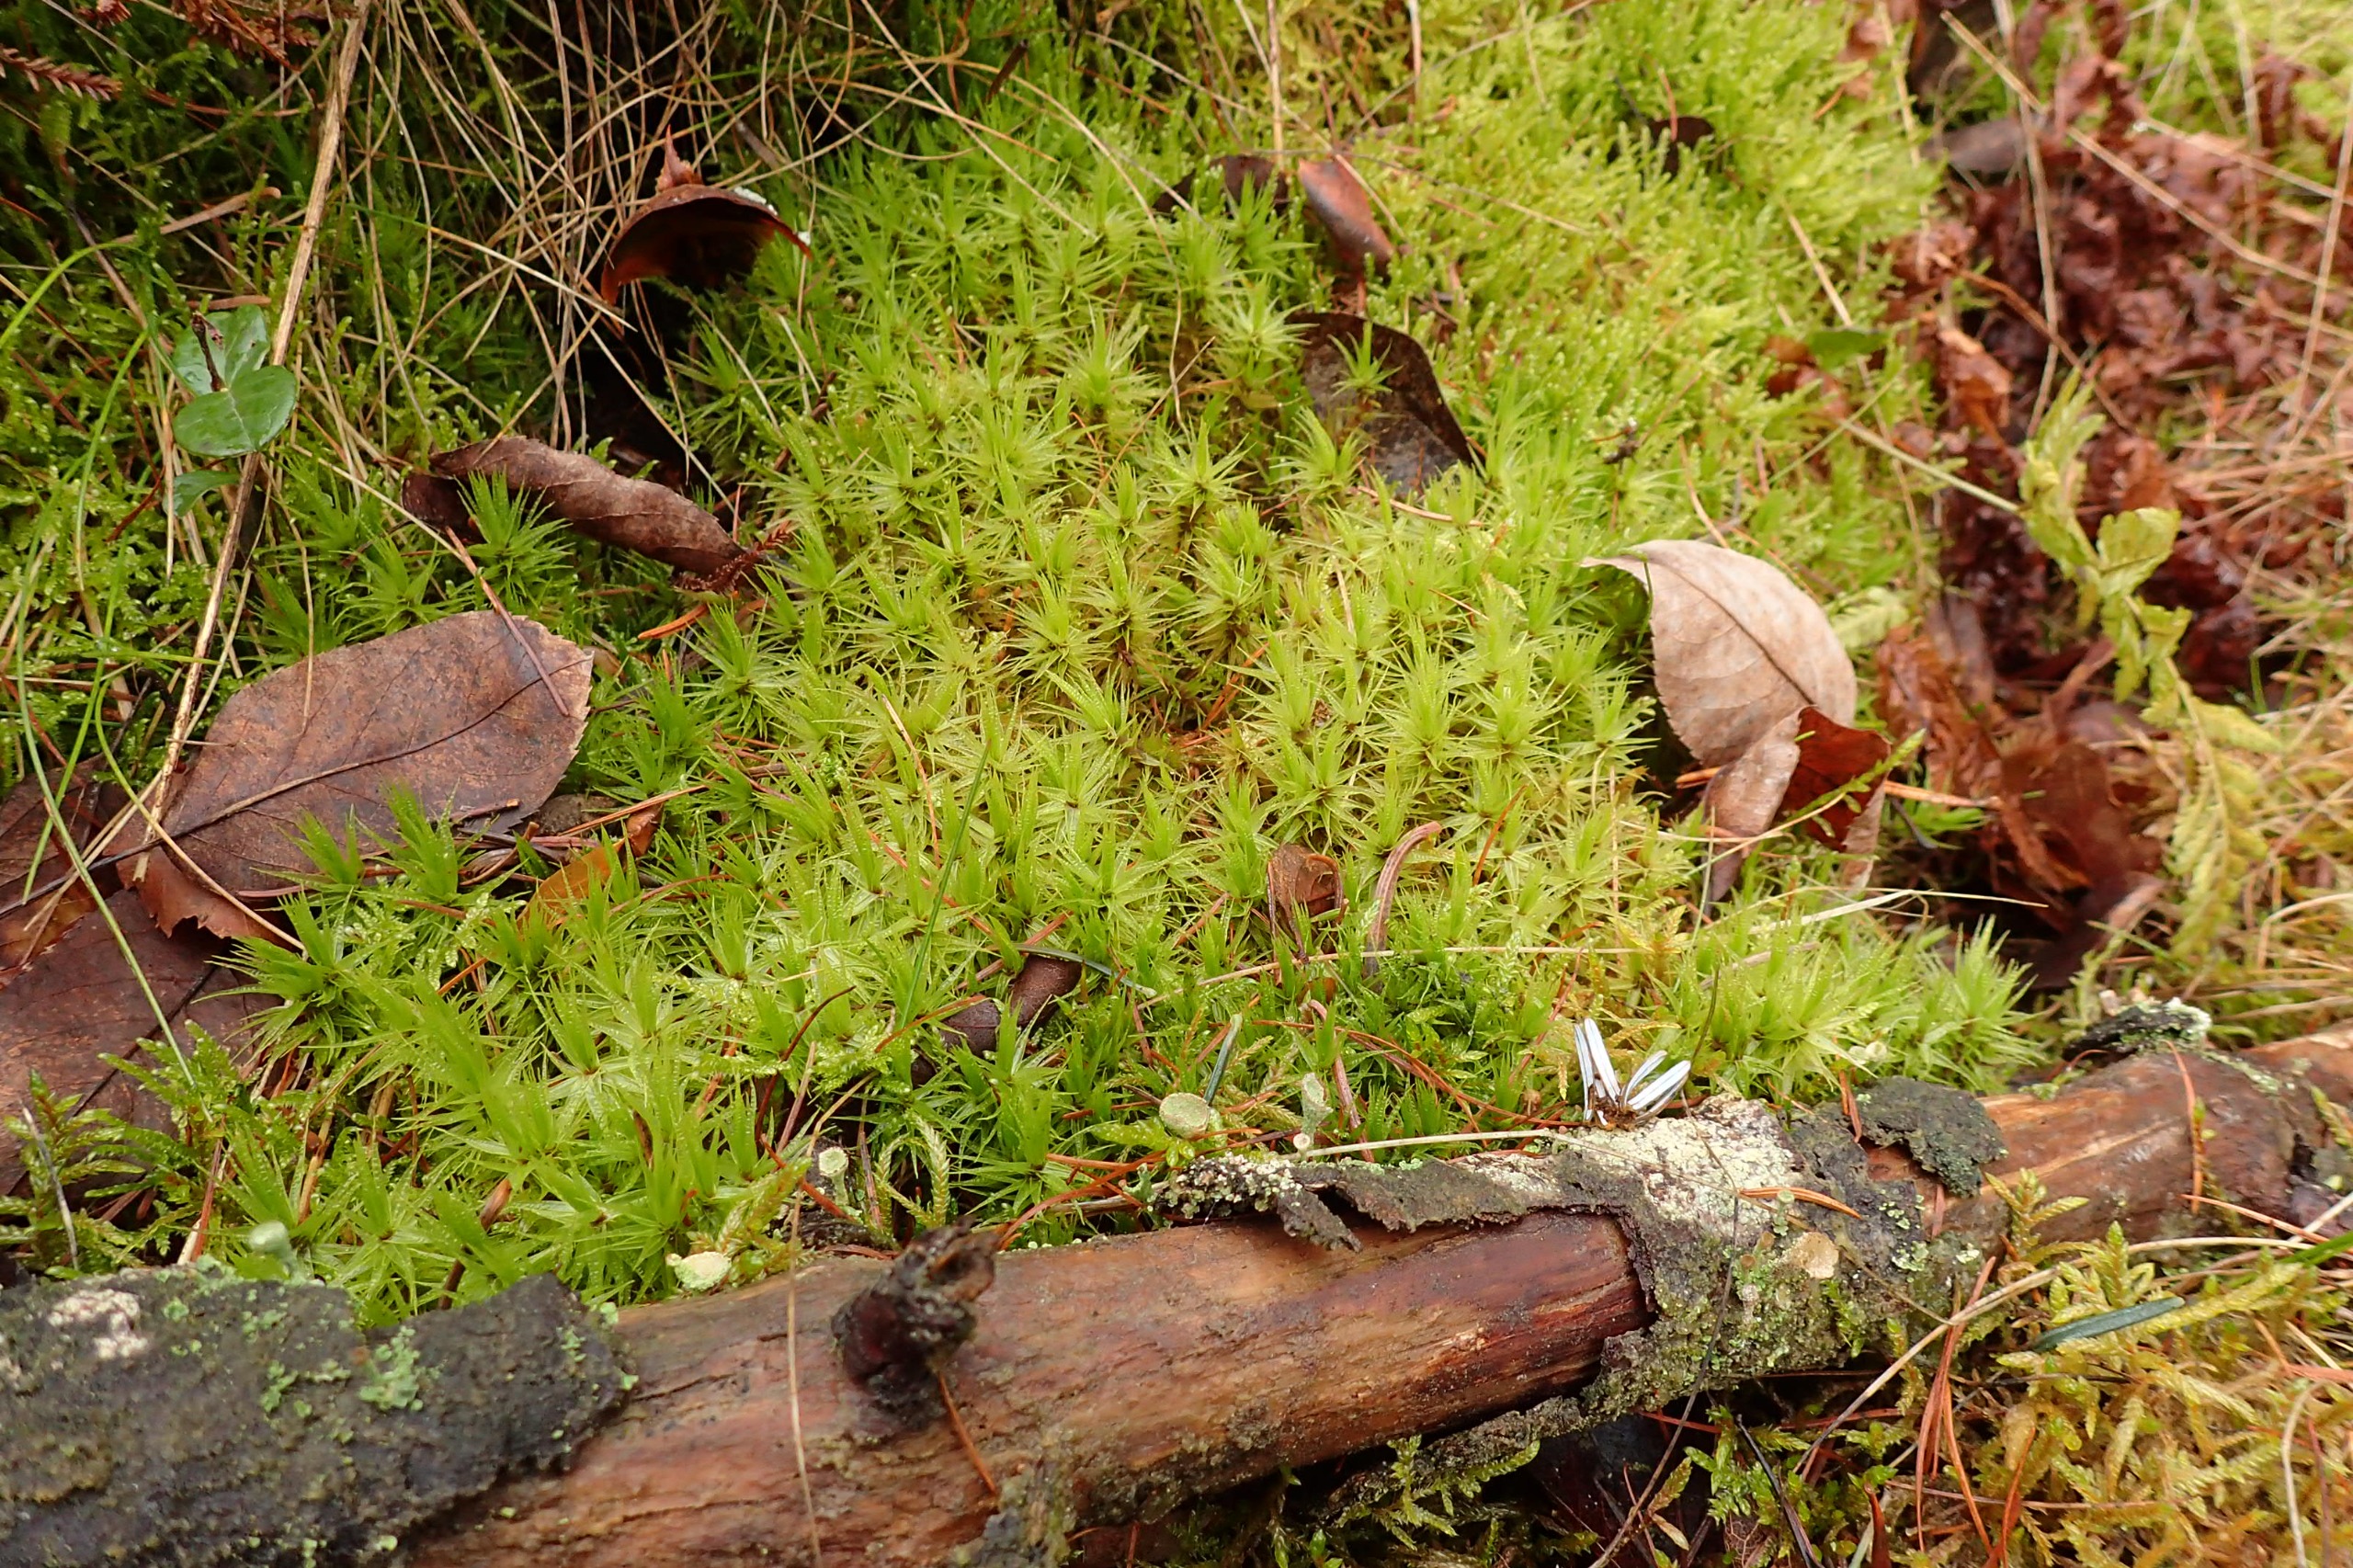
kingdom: Plantae
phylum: Bryophyta
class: Bryopsida
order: Dicranales
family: Dicranaceae
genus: Dicranum
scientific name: Dicranum polysetum
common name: Bølgebladet kløvtand
